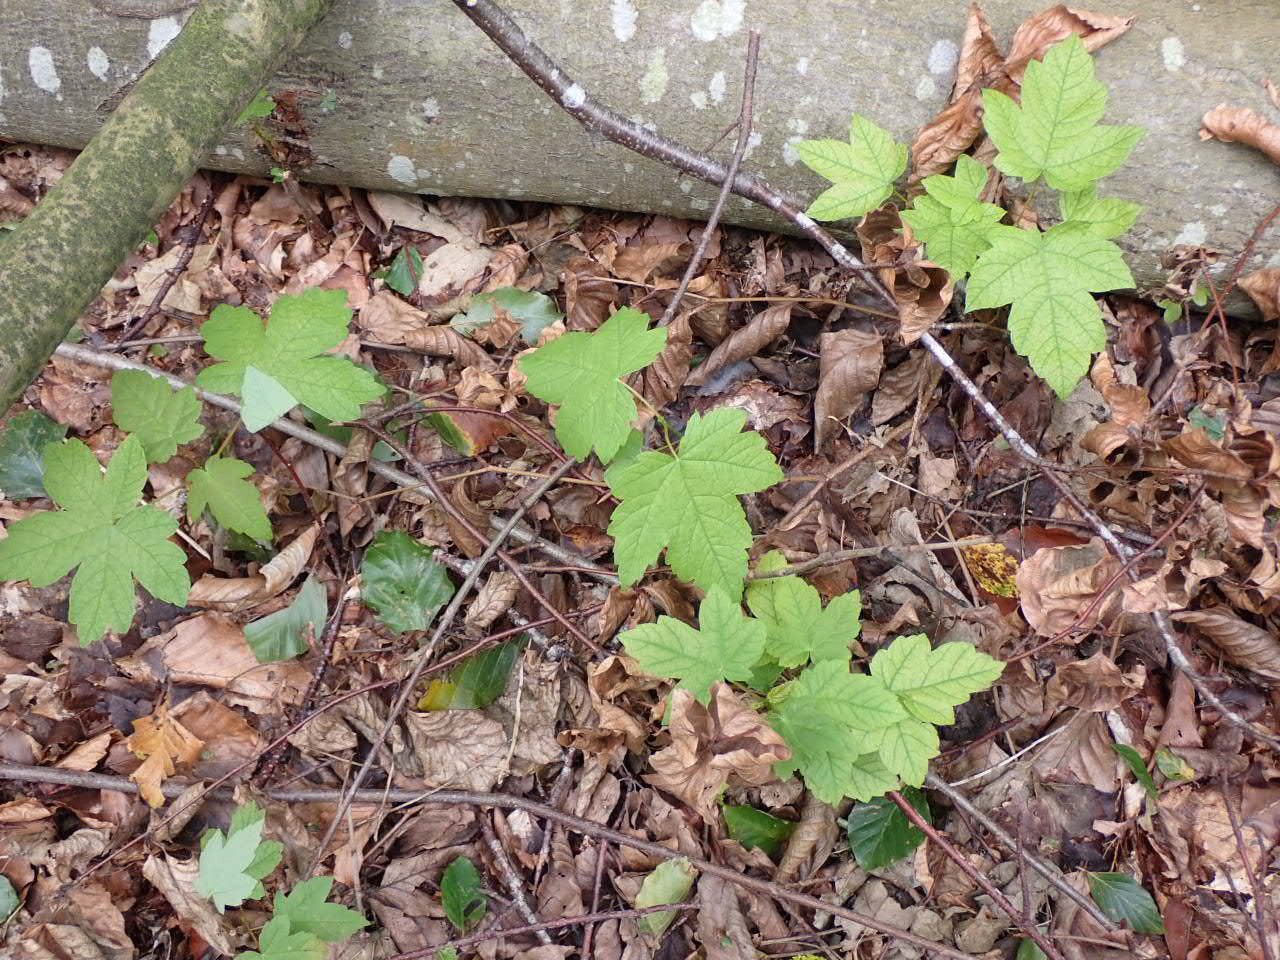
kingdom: Plantae
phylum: Tracheophyta
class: Magnoliopsida
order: Sapindales
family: Sapindaceae
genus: Acer
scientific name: Acer pseudoplatanus
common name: Ahorn
